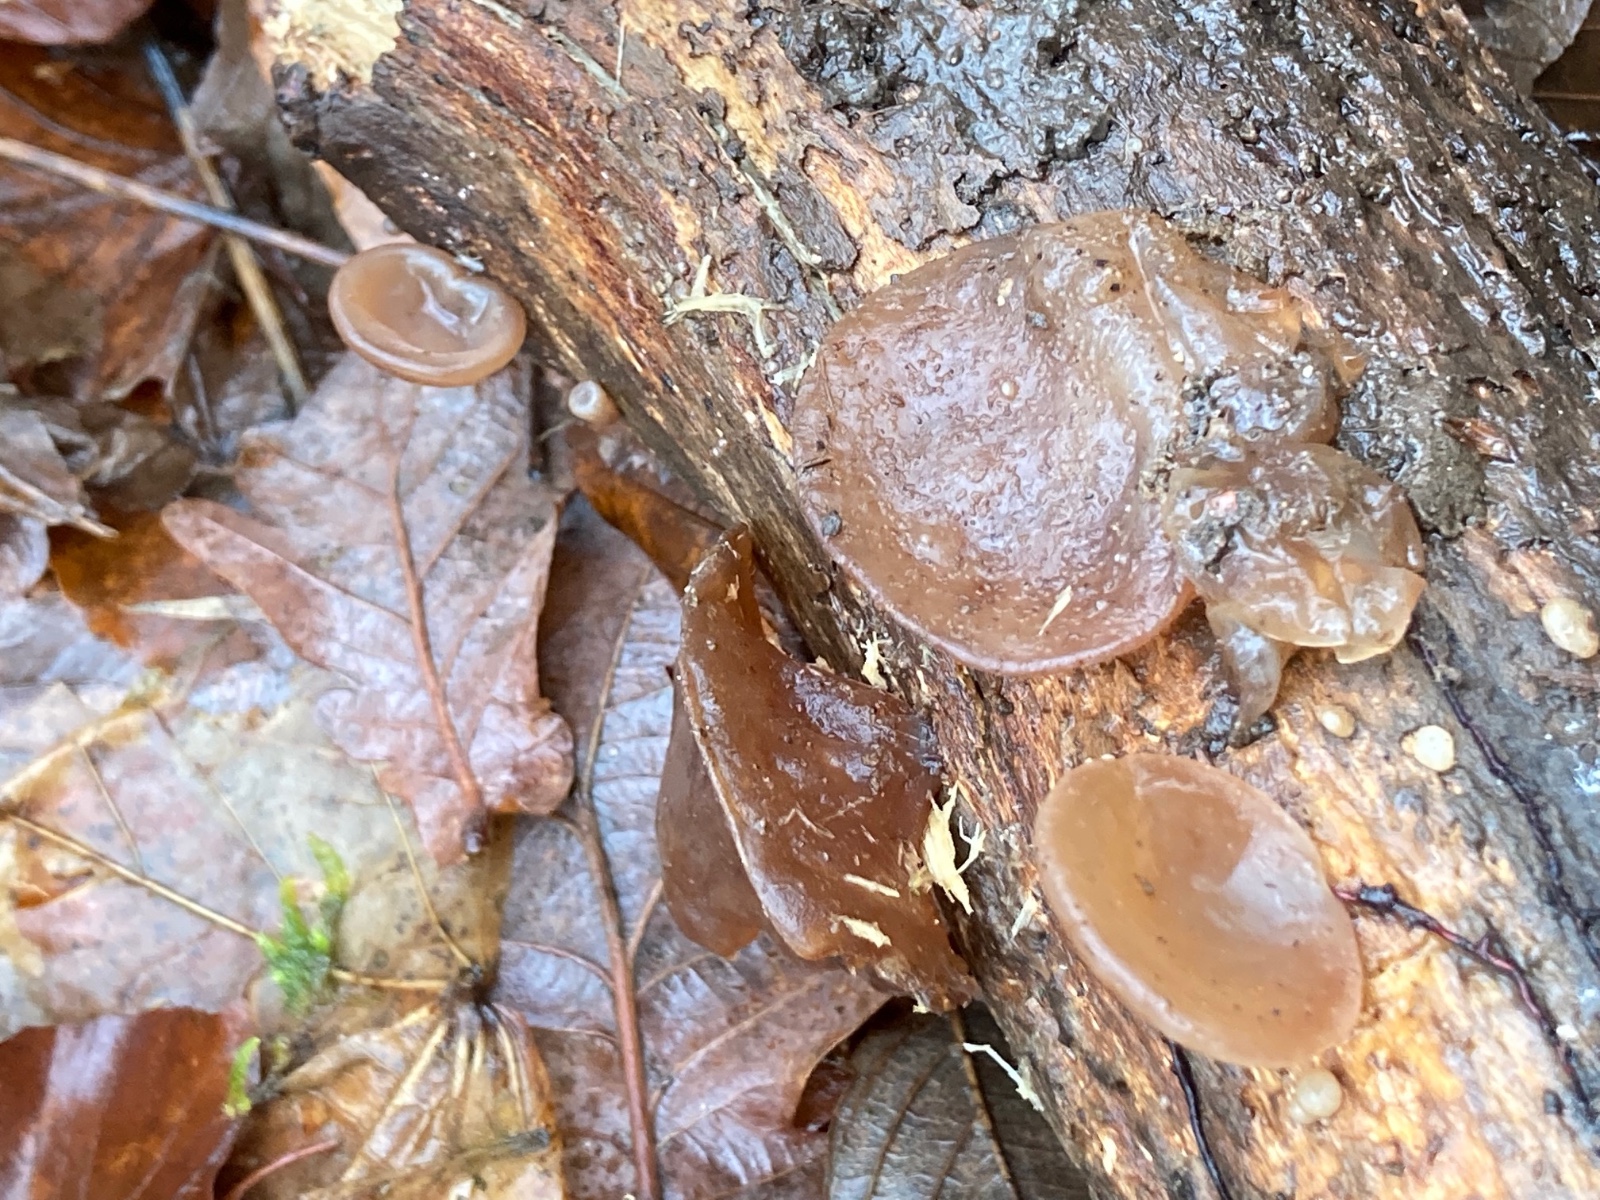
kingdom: Fungi
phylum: Basidiomycota
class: Agaricomycetes
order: Auriculariales
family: Auriculariaceae
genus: Auricularia
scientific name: Auricularia auricula-judae
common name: almindelig judasøre
